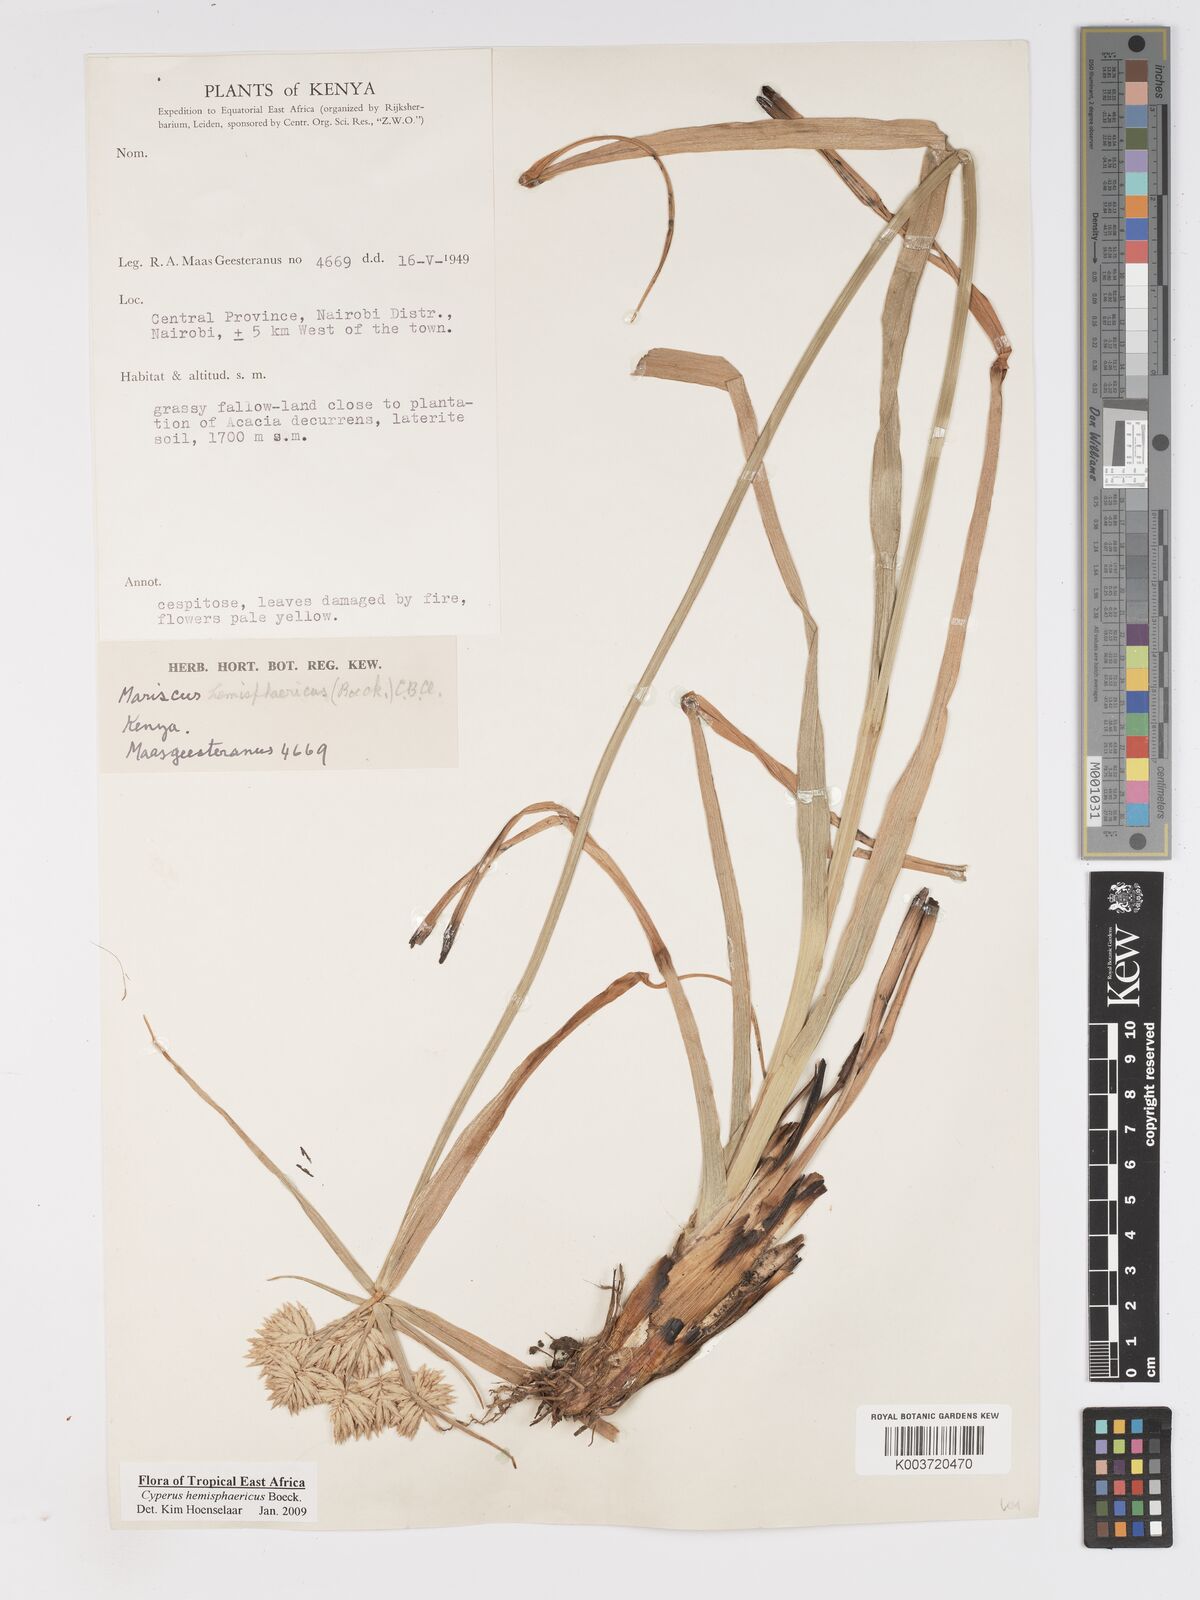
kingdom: Plantae
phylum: Tracheophyta
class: Liliopsida
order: Poales
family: Cyperaceae
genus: Cyperus
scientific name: Cyperus hemisphaericus
